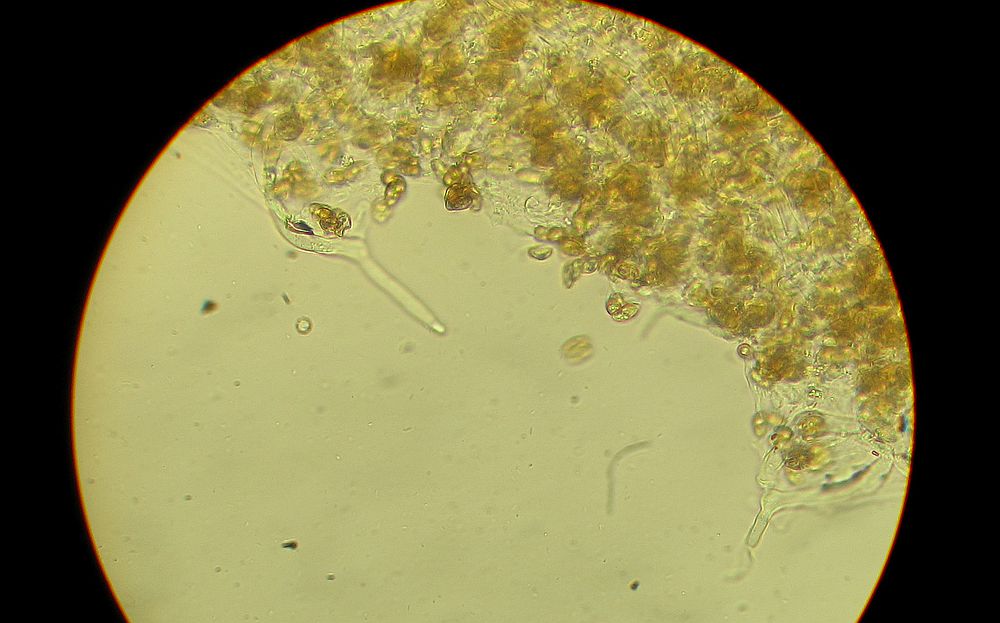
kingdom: Fungi
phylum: Basidiomycota
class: Agaricomycetes
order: Agaricales
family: Crepidotaceae
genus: Crepidotus
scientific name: Crepidotus luteolus
